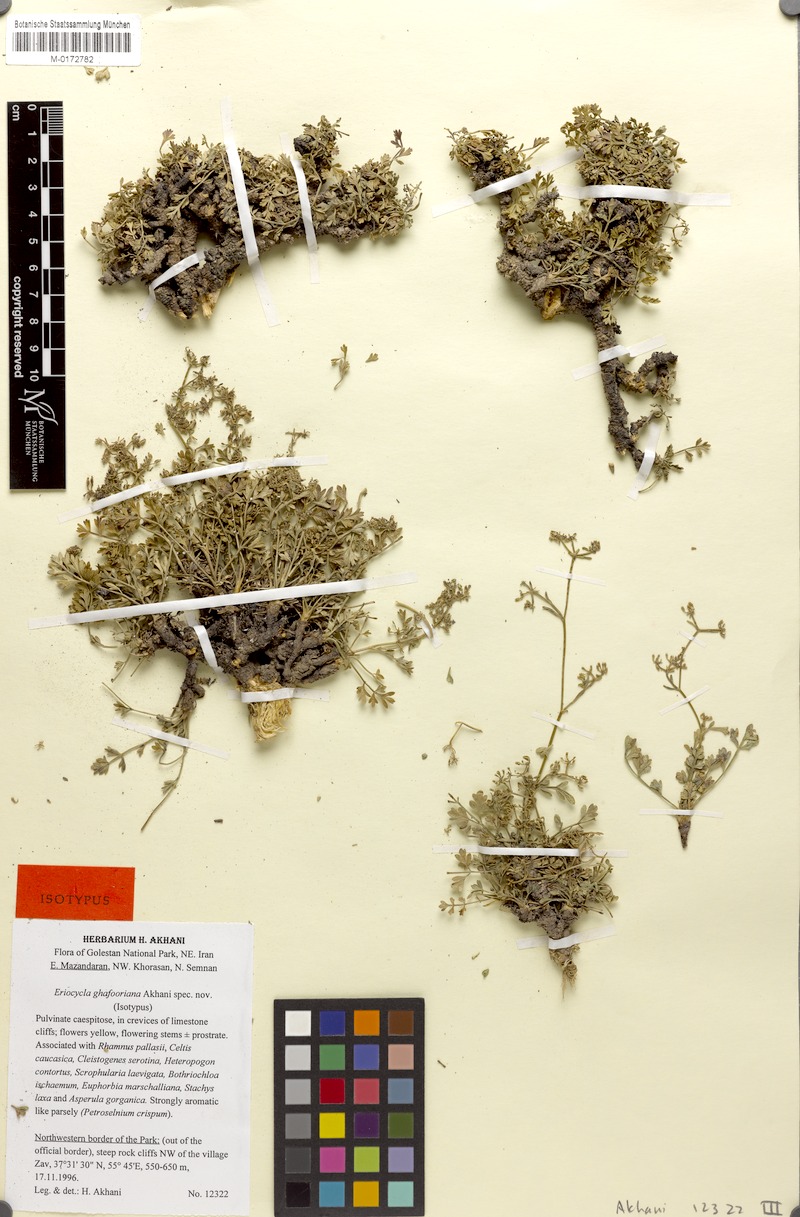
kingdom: Plantae
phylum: Tracheophyta
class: Magnoliopsida
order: Apiales
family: Apiaceae
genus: Seseli
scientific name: Seseli ghafoorianum
